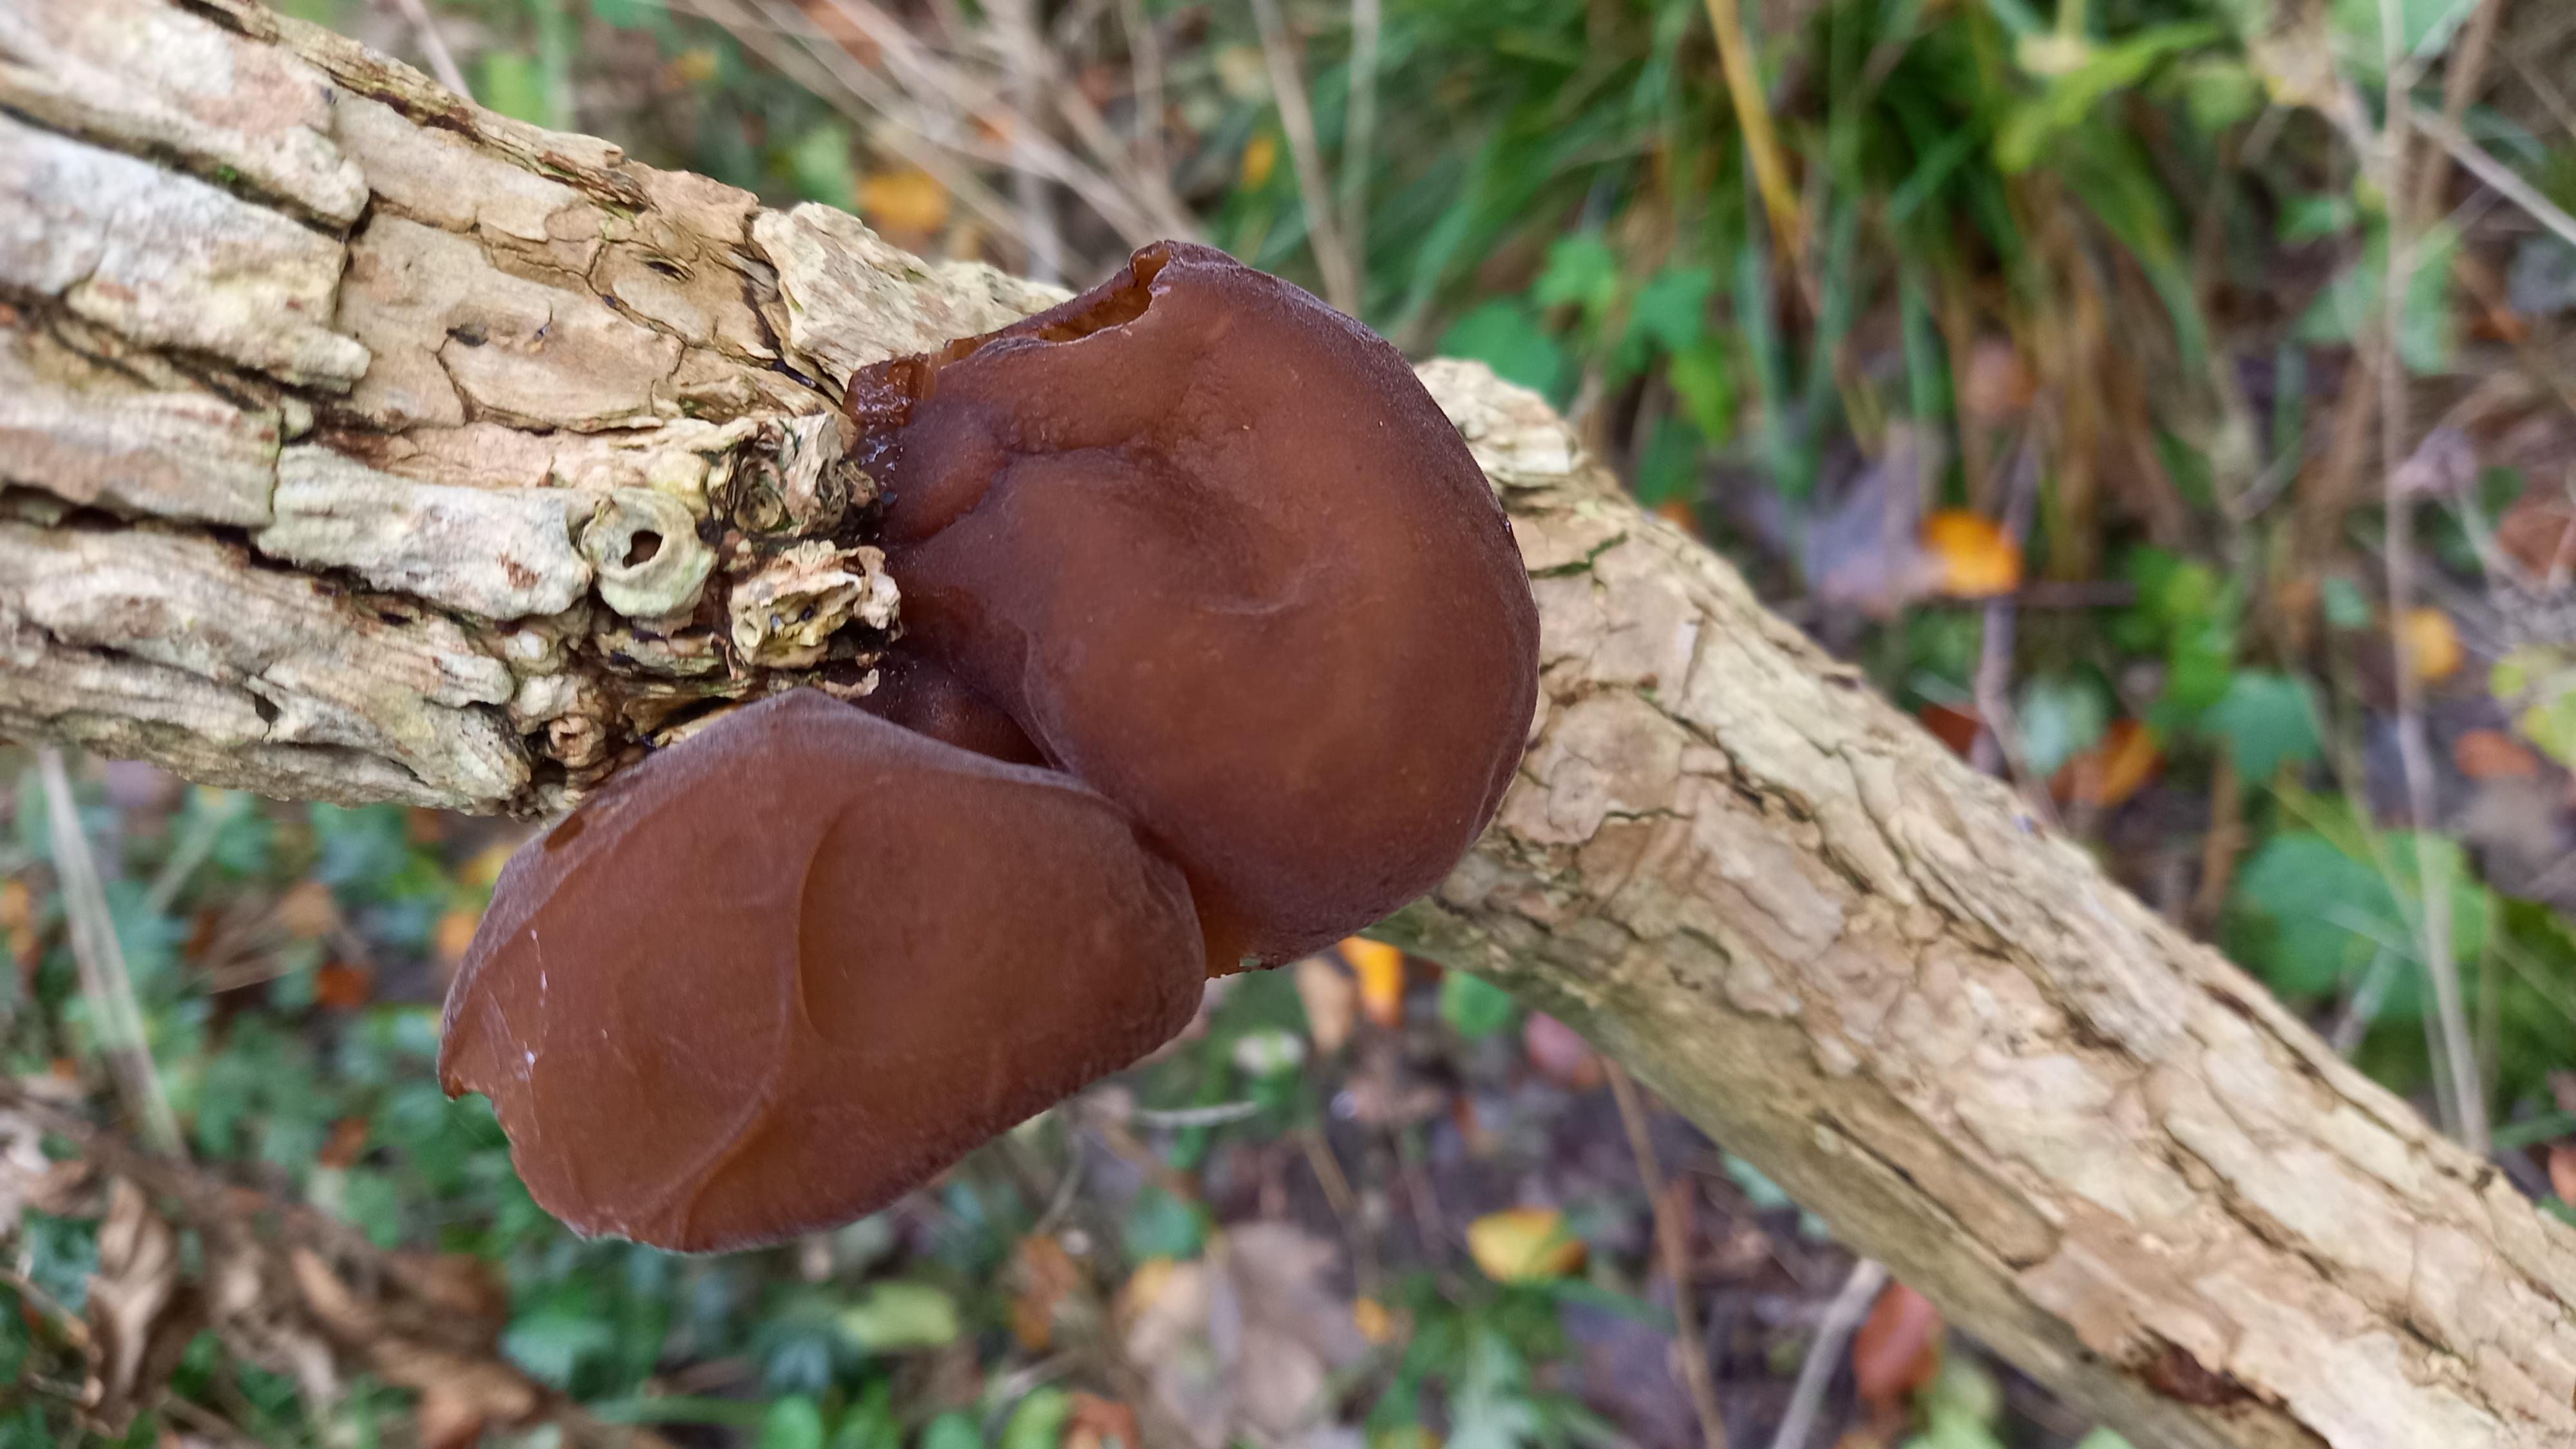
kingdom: Fungi
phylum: Basidiomycota
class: Agaricomycetes
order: Auriculariales
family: Auriculariaceae
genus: Auricularia
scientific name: Auricularia auricula-judae
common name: almindelig judasøre
